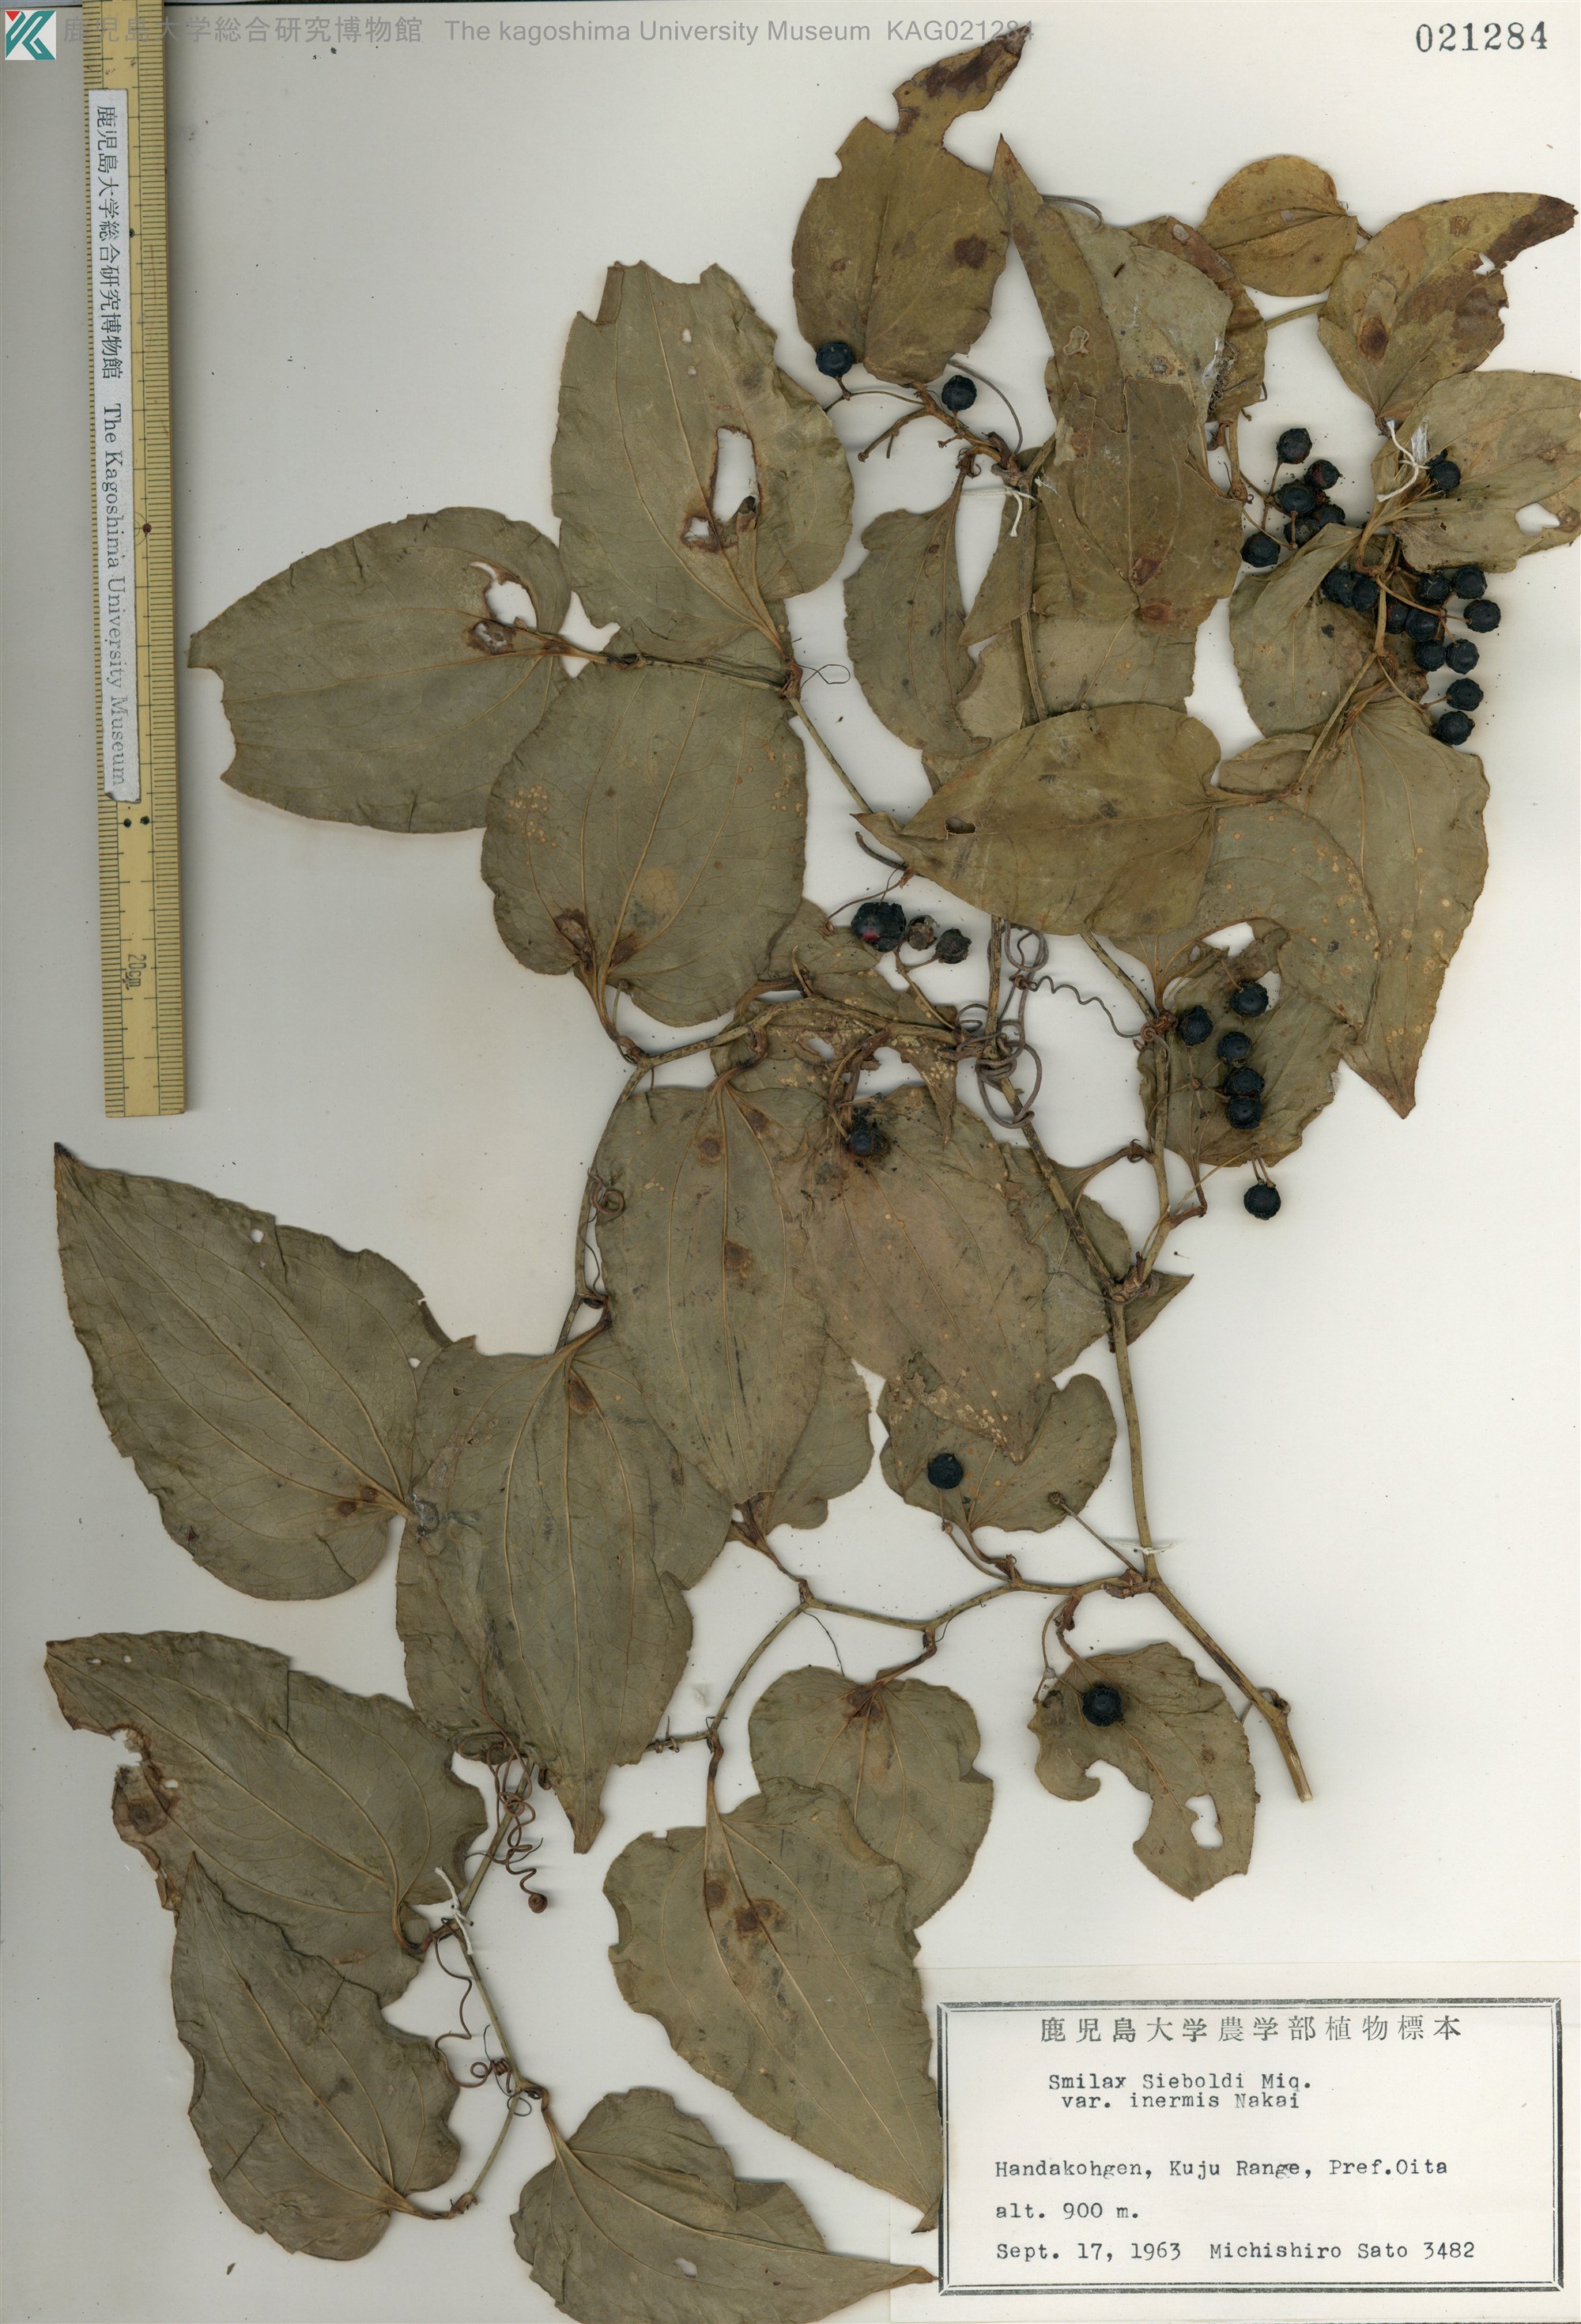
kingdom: Plantae
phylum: Tracheophyta
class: Liliopsida
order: Liliales
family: Smilacaceae
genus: Smilax
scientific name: Smilax sieboldii
